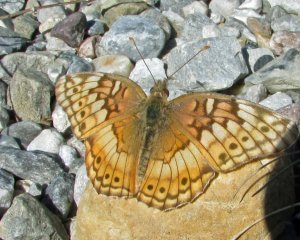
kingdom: Animalia
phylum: Arthropoda
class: Insecta
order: Lepidoptera
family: Nymphalidae
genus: Euptoieta
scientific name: Euptoieta claudia
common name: Variegated Fritillary
